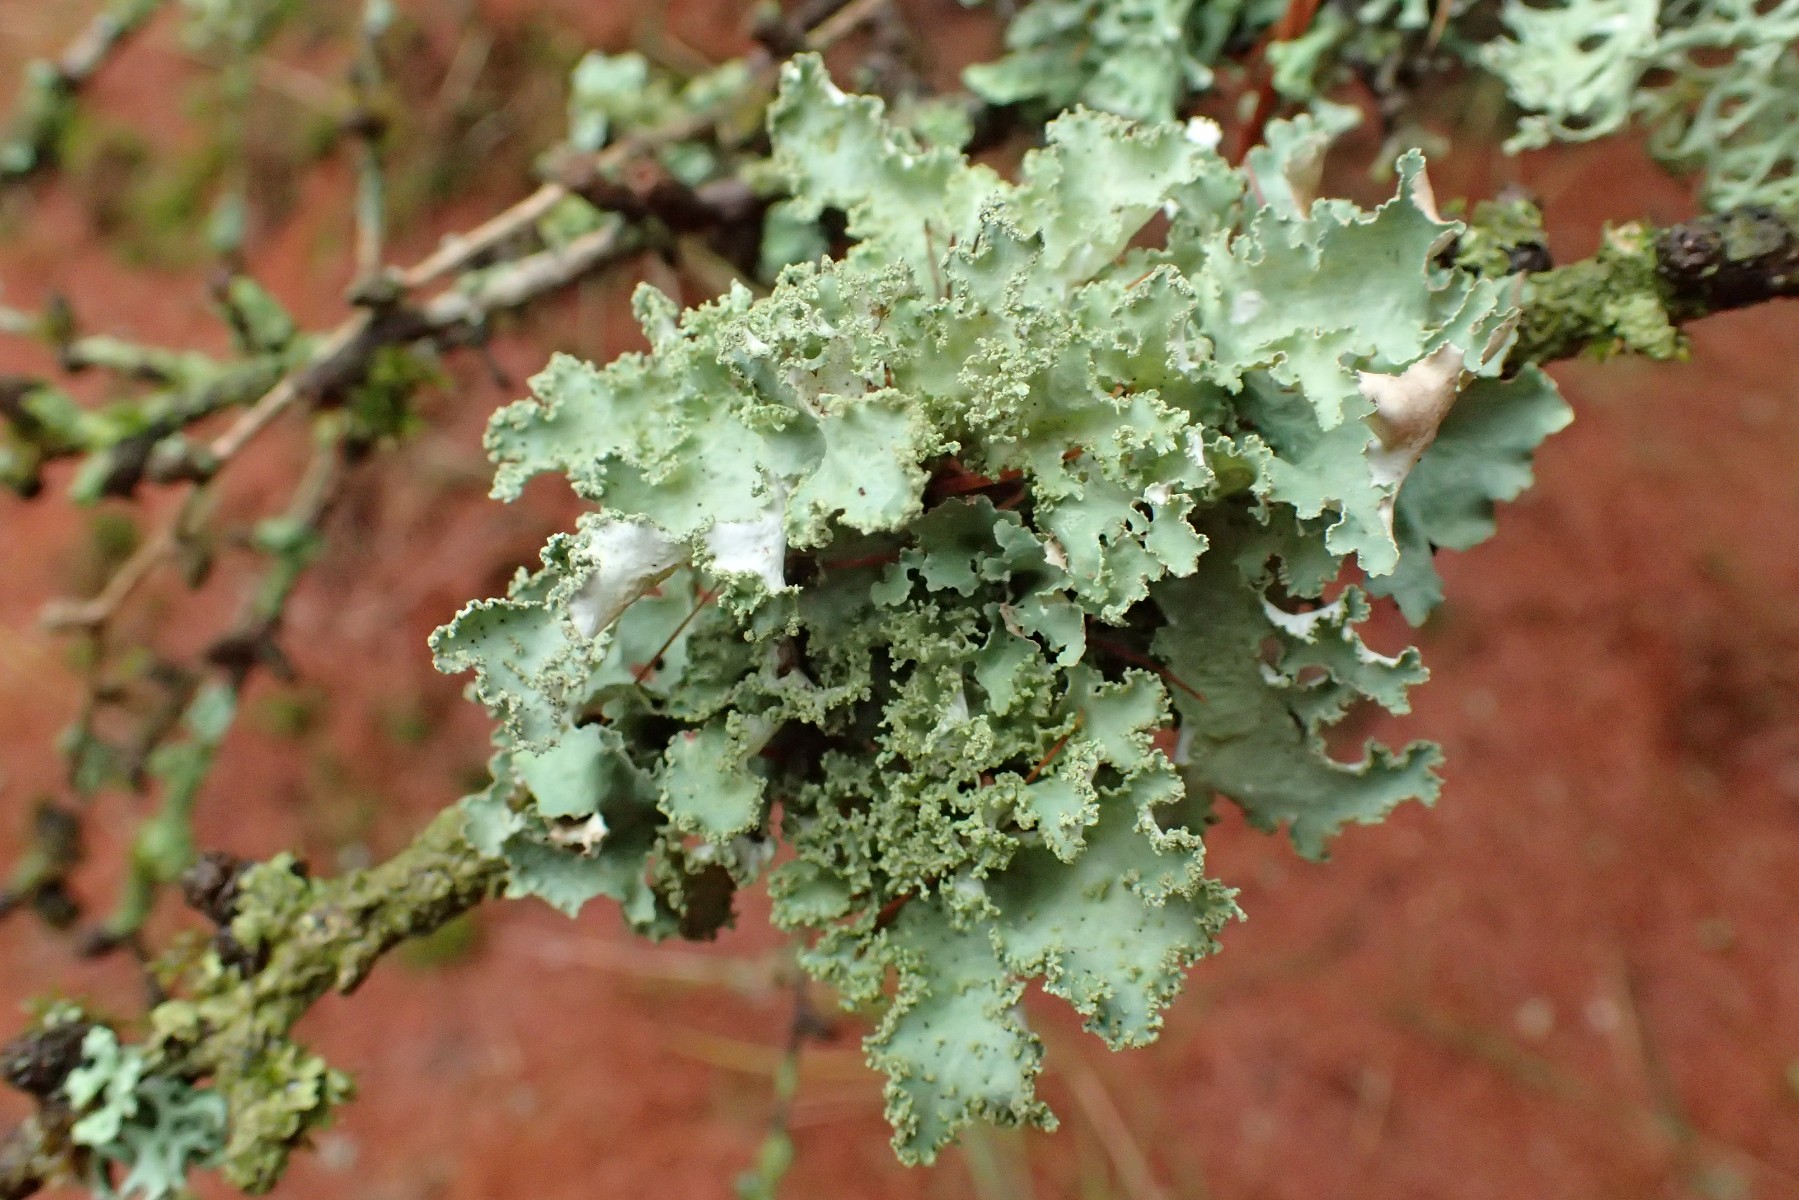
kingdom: Fungi
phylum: Ascomycota
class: Lecanoromycetes
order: Lecanorales
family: Parmeliaceae
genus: Platismatia
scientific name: Platismatia glauca
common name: blågrå papirlav
